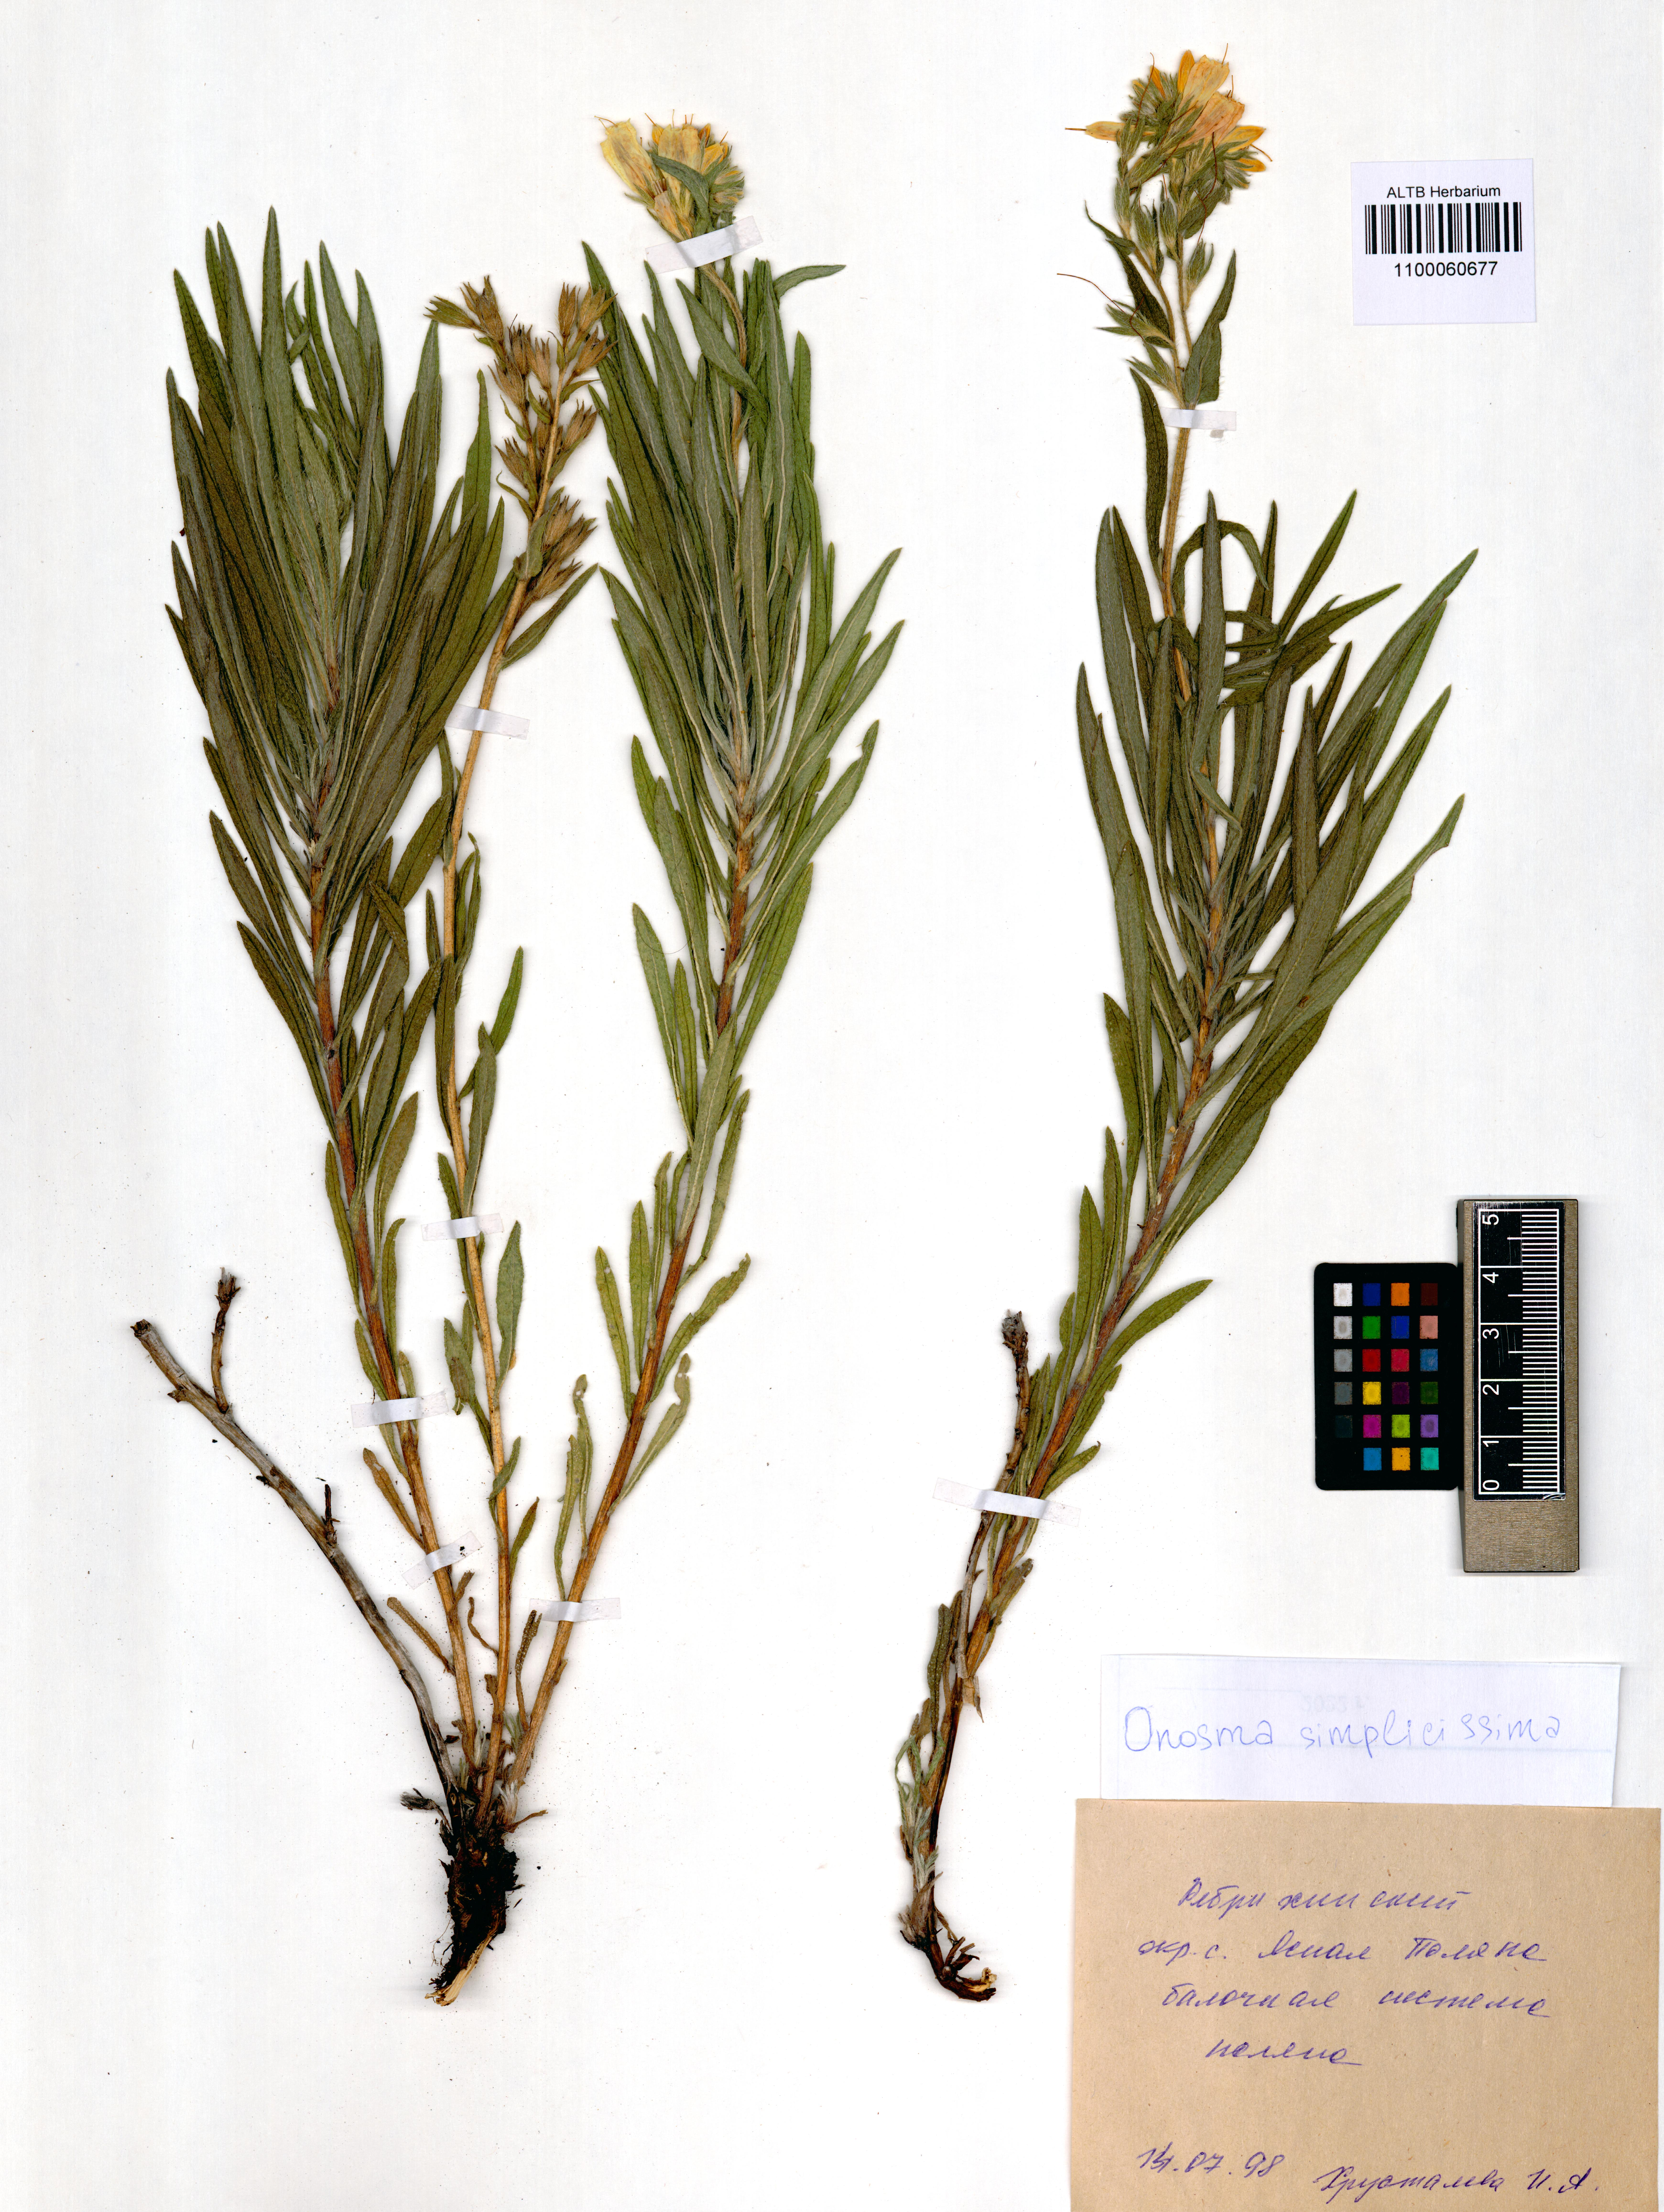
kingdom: Plantae
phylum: Tracheophyta
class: Magnoliopsida
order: Boraginales
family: Boraginaceae
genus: Onosma
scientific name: Onosma simplicissima
